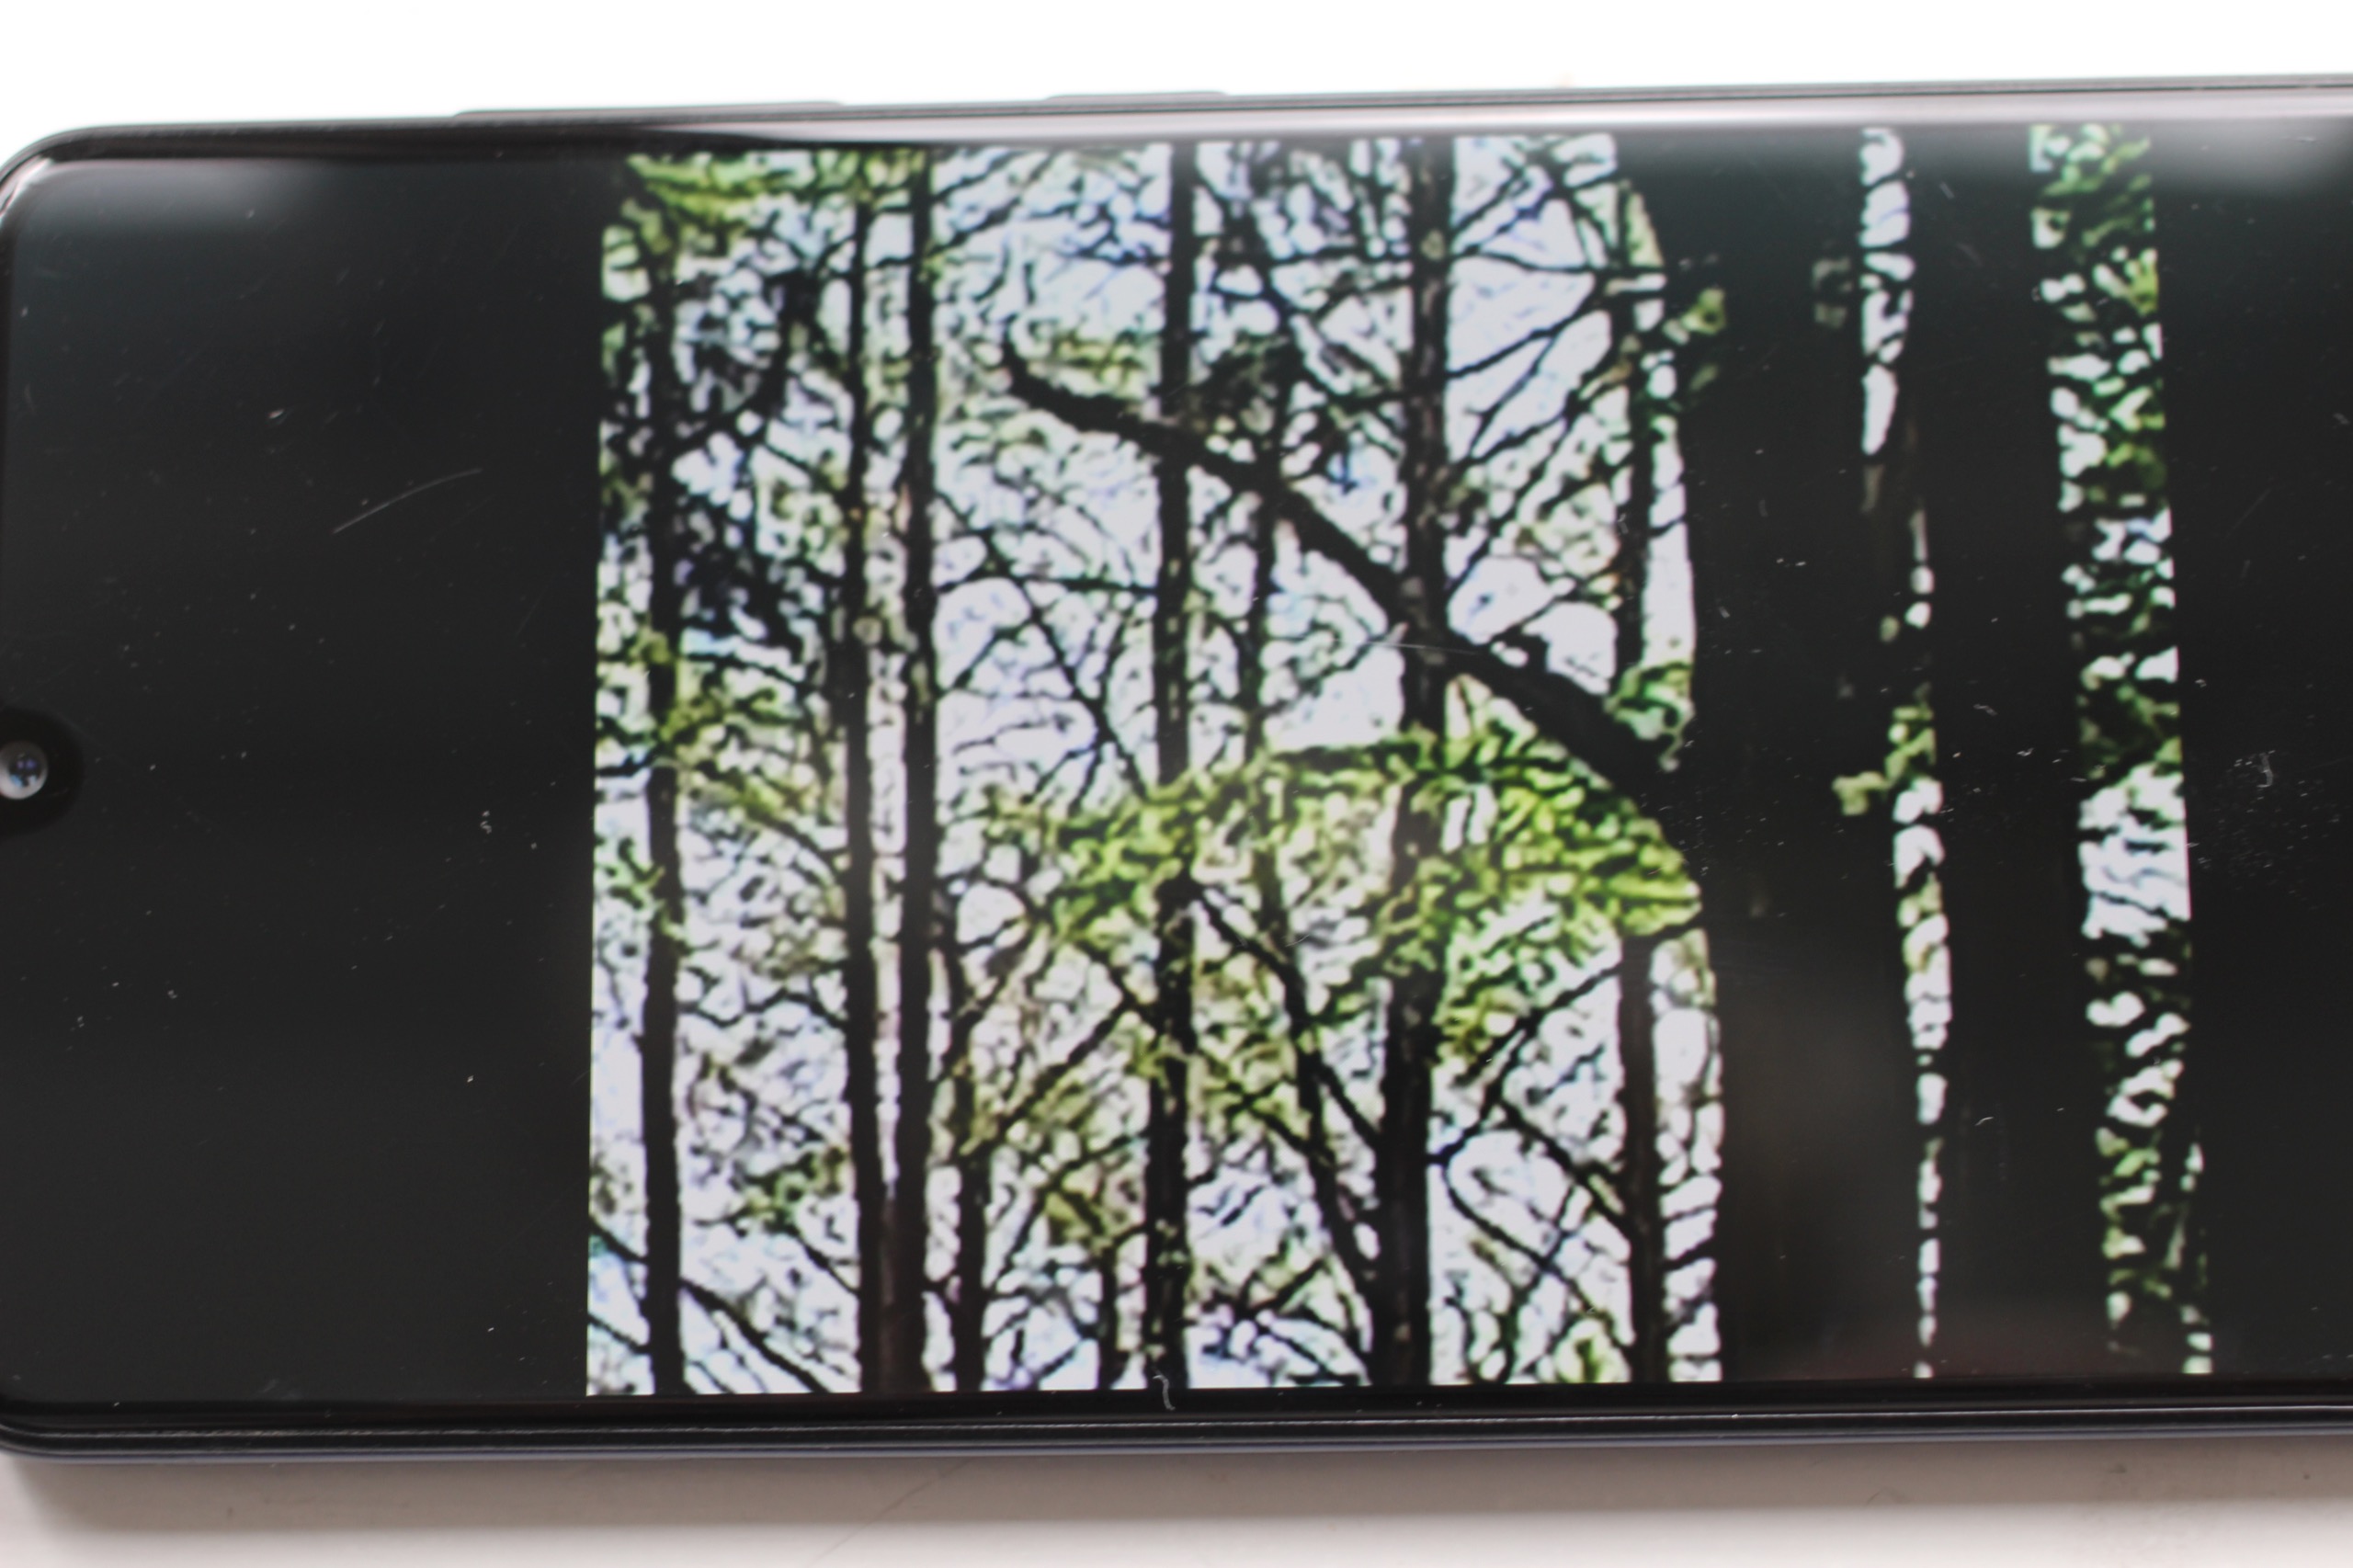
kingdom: Animalia
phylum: Chordata
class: Mammalia
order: Rodentia
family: Sciuridae
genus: Sciurus
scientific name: Sciurus vulgaris
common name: Egern
